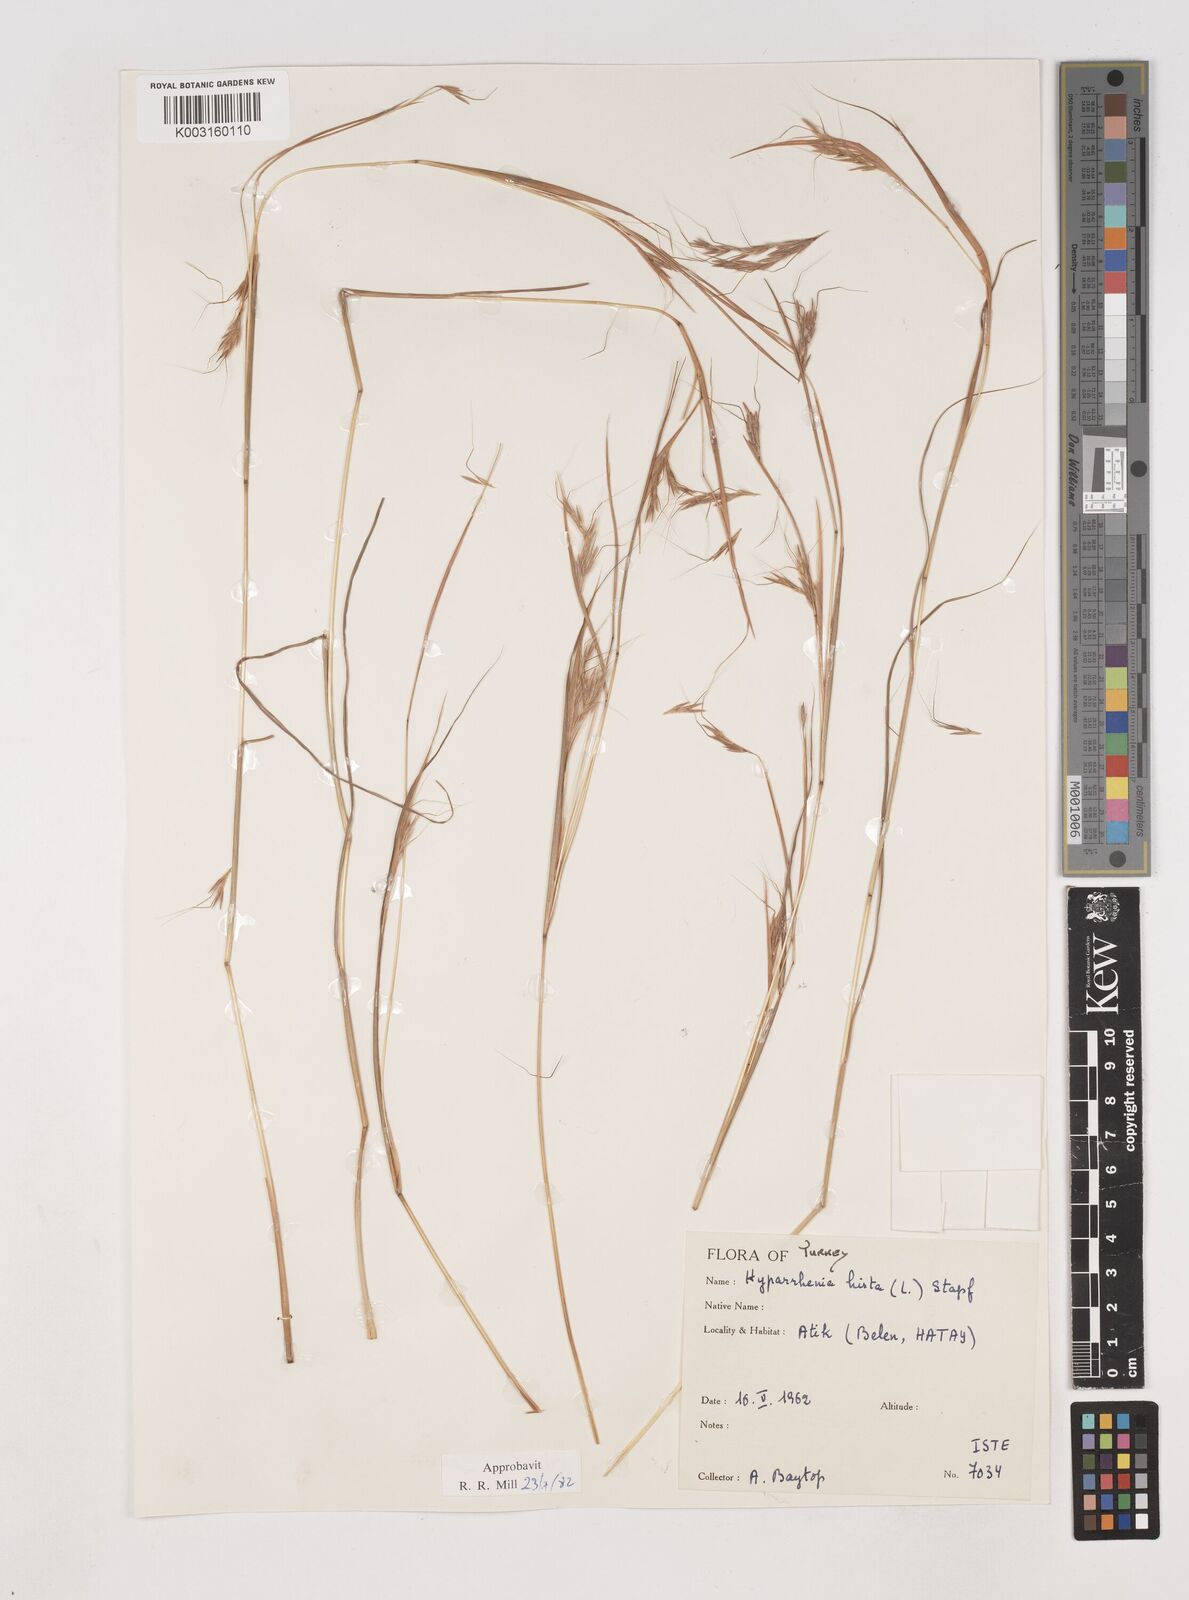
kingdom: Plantae
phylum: Tracheophyta
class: Liliopsida
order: Poales
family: Poaceae
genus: Hyparrhenia
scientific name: Hyparrhenia hirta
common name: Thatching grass
